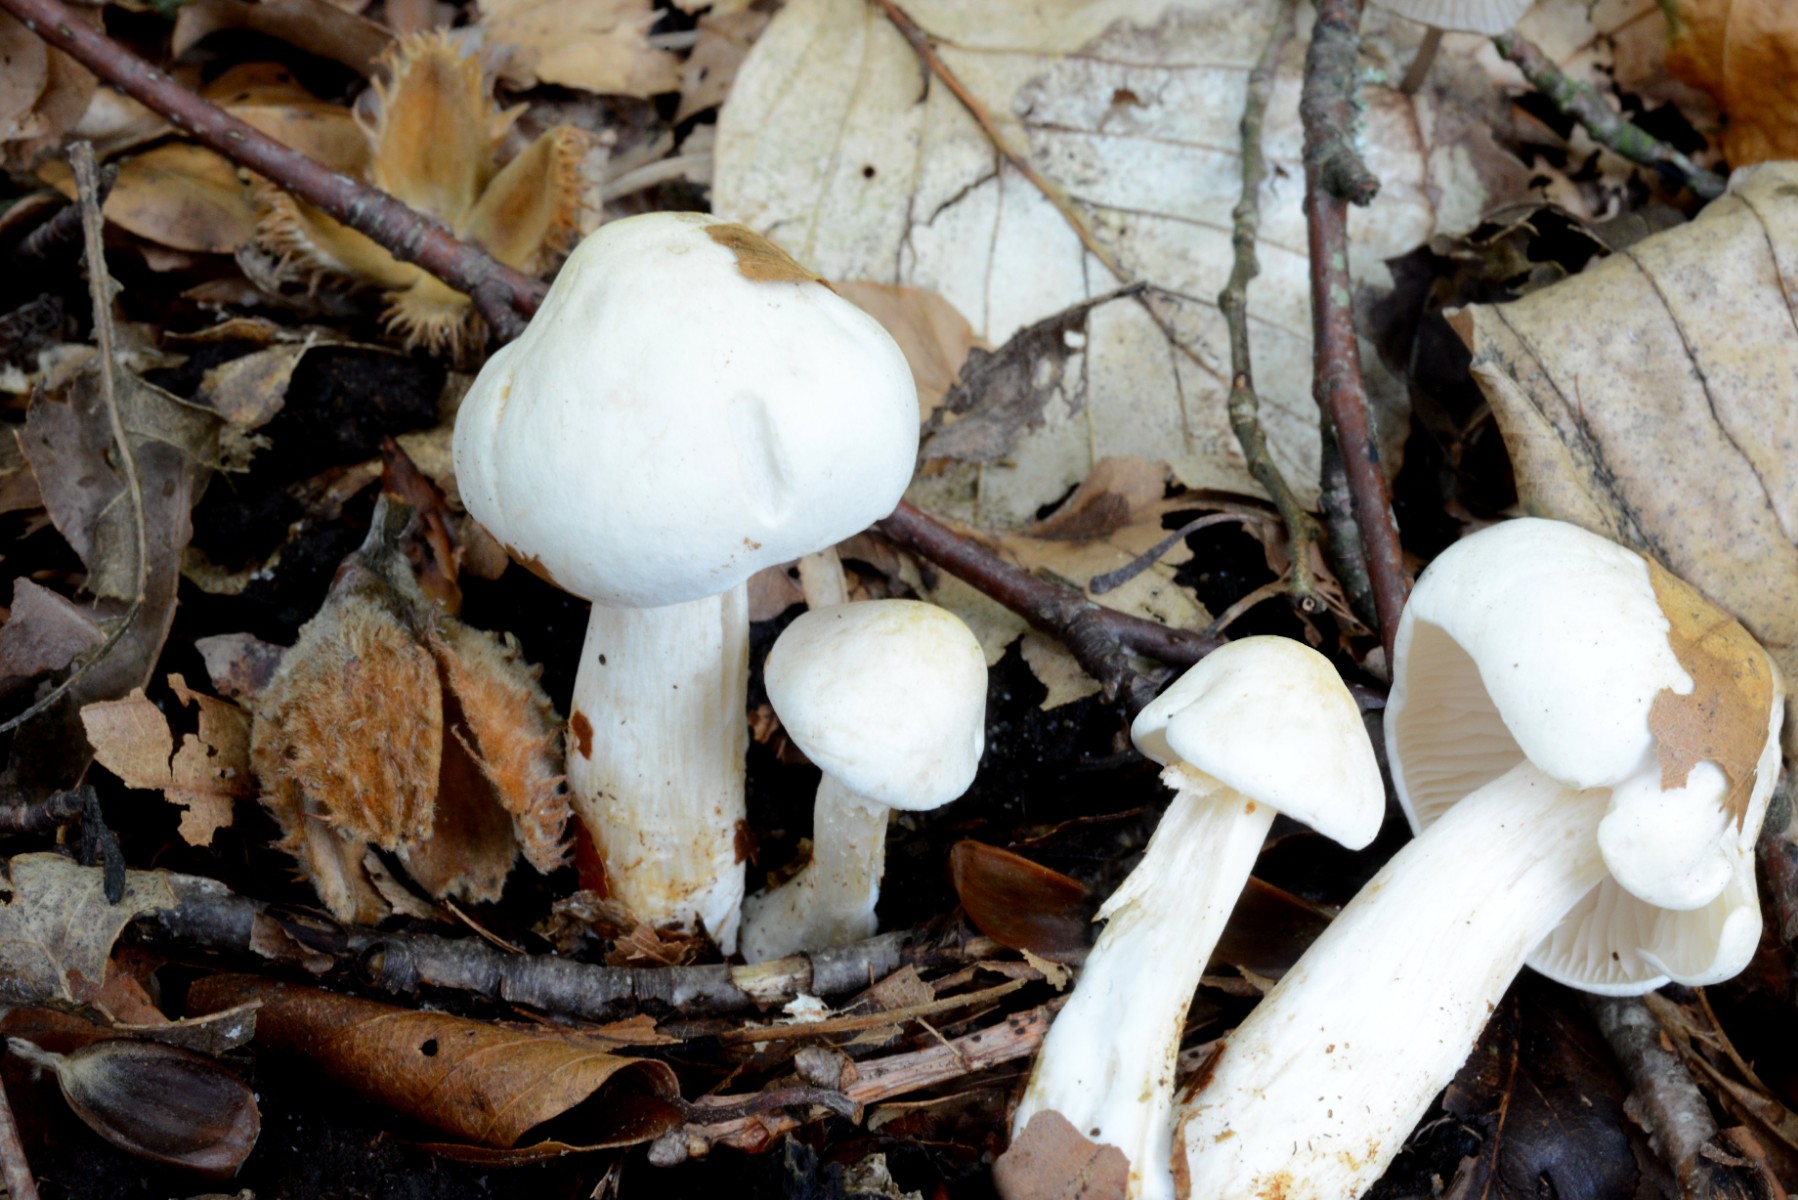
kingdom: Fungi
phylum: Basidiomycota
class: Agaricomycetes
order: Agaricales
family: Hygrophoraceae
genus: Hygrophorus
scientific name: Hygrophorus penarius
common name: spiselig sneglehat
